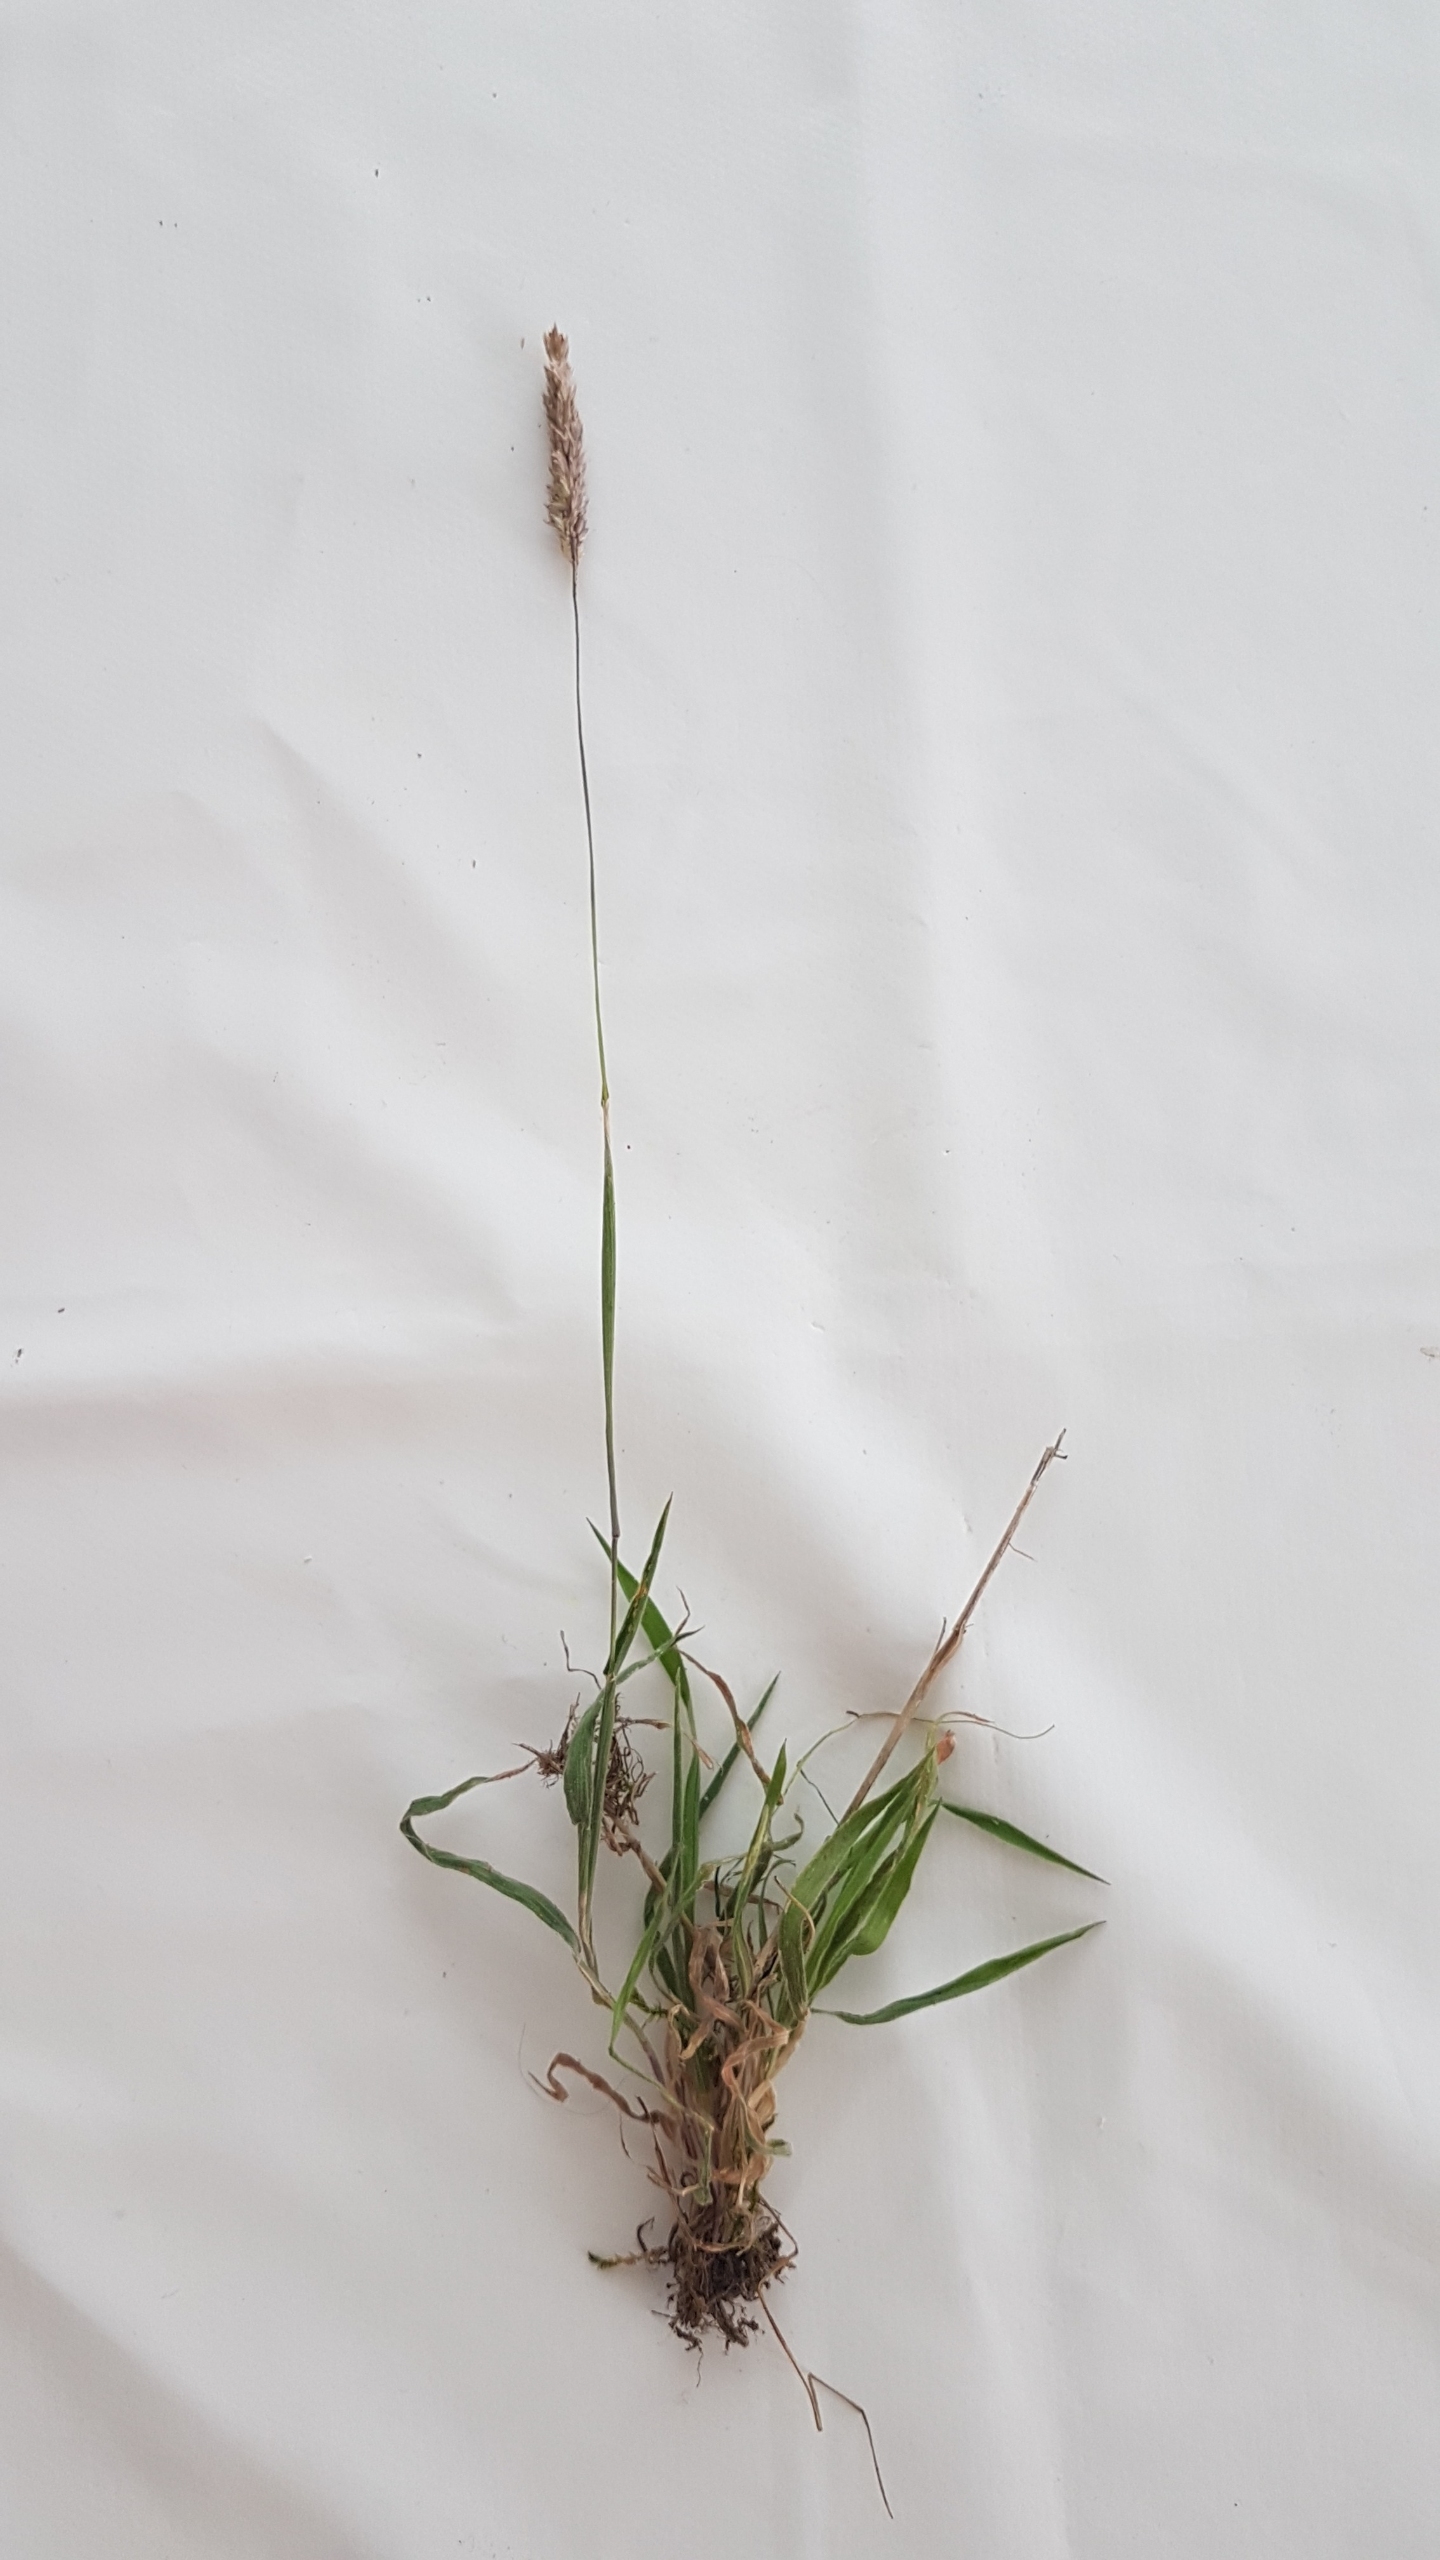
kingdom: Plantae
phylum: Tracheophyta
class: Liliopsida
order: Poales
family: Poaceae
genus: Holcus
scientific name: Holcus lanatus
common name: Fløjlsgræs
